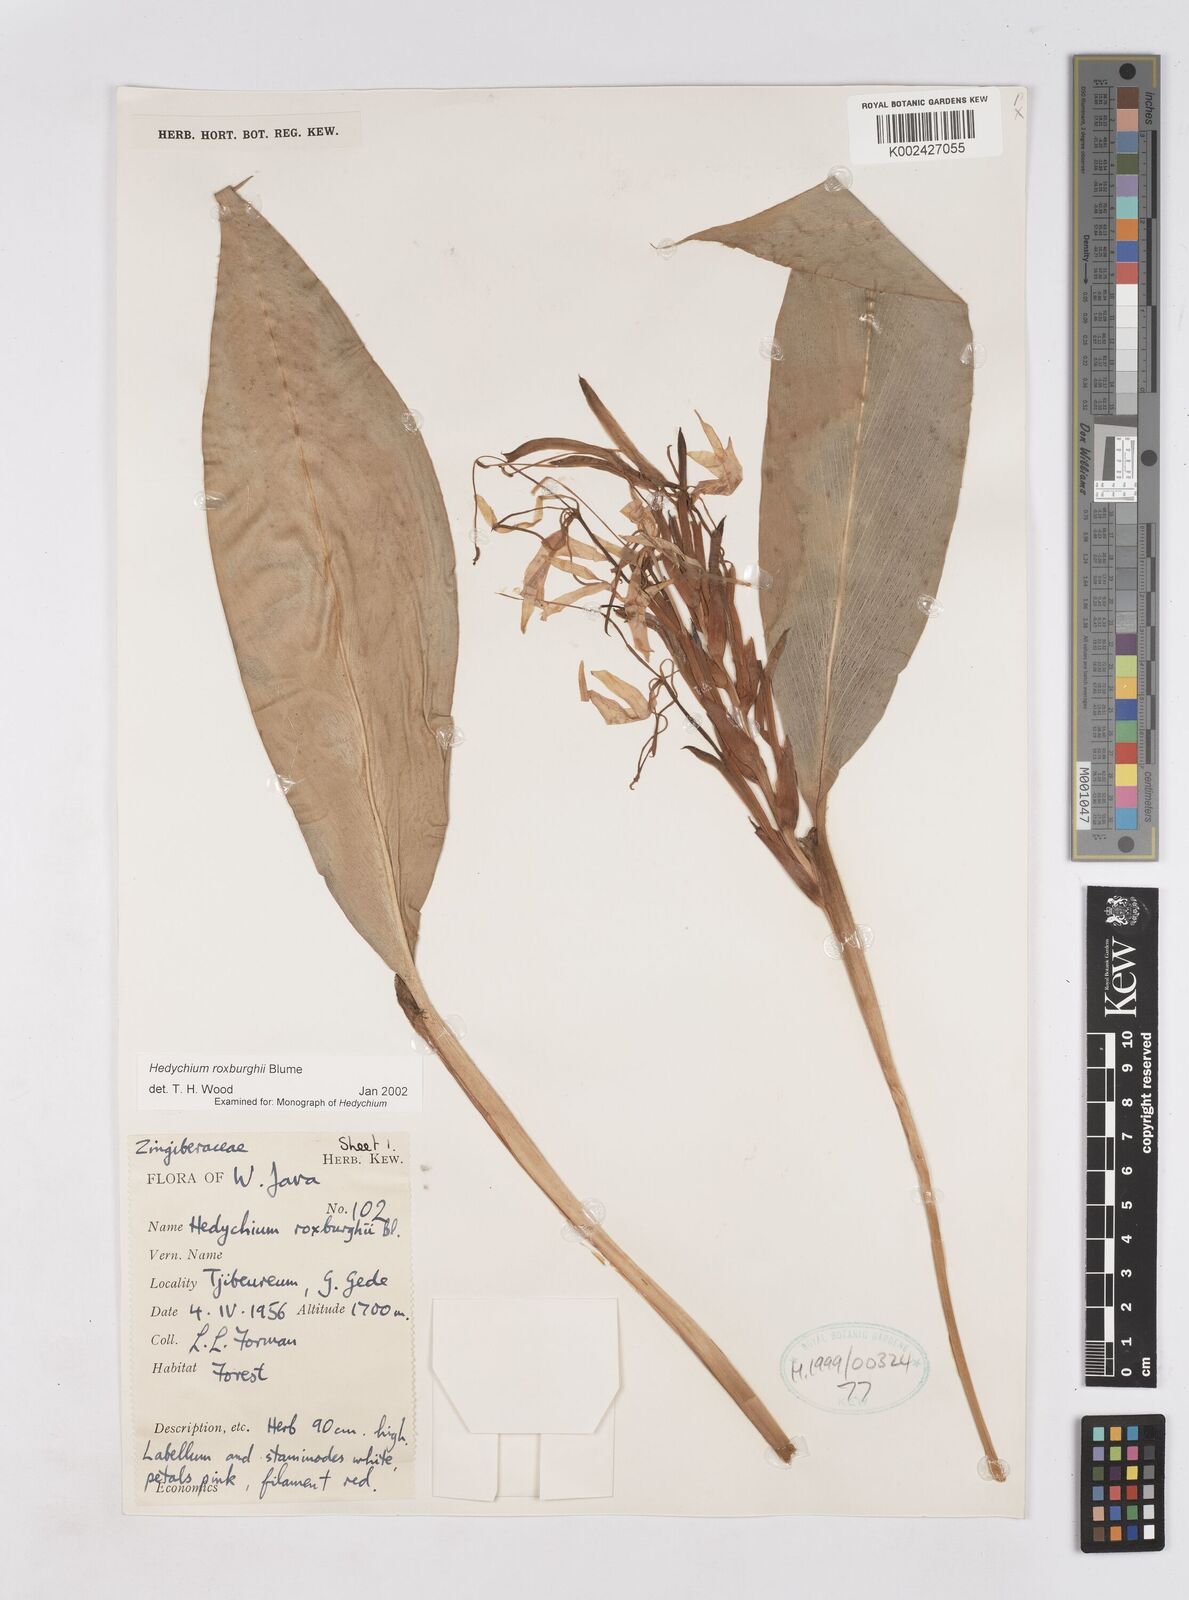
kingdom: Plantae
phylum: Tracheophyta
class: Liliopsida
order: Zingiberales
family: Zingiberaceae
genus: Hedychium
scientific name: Hedychium roxburghii
